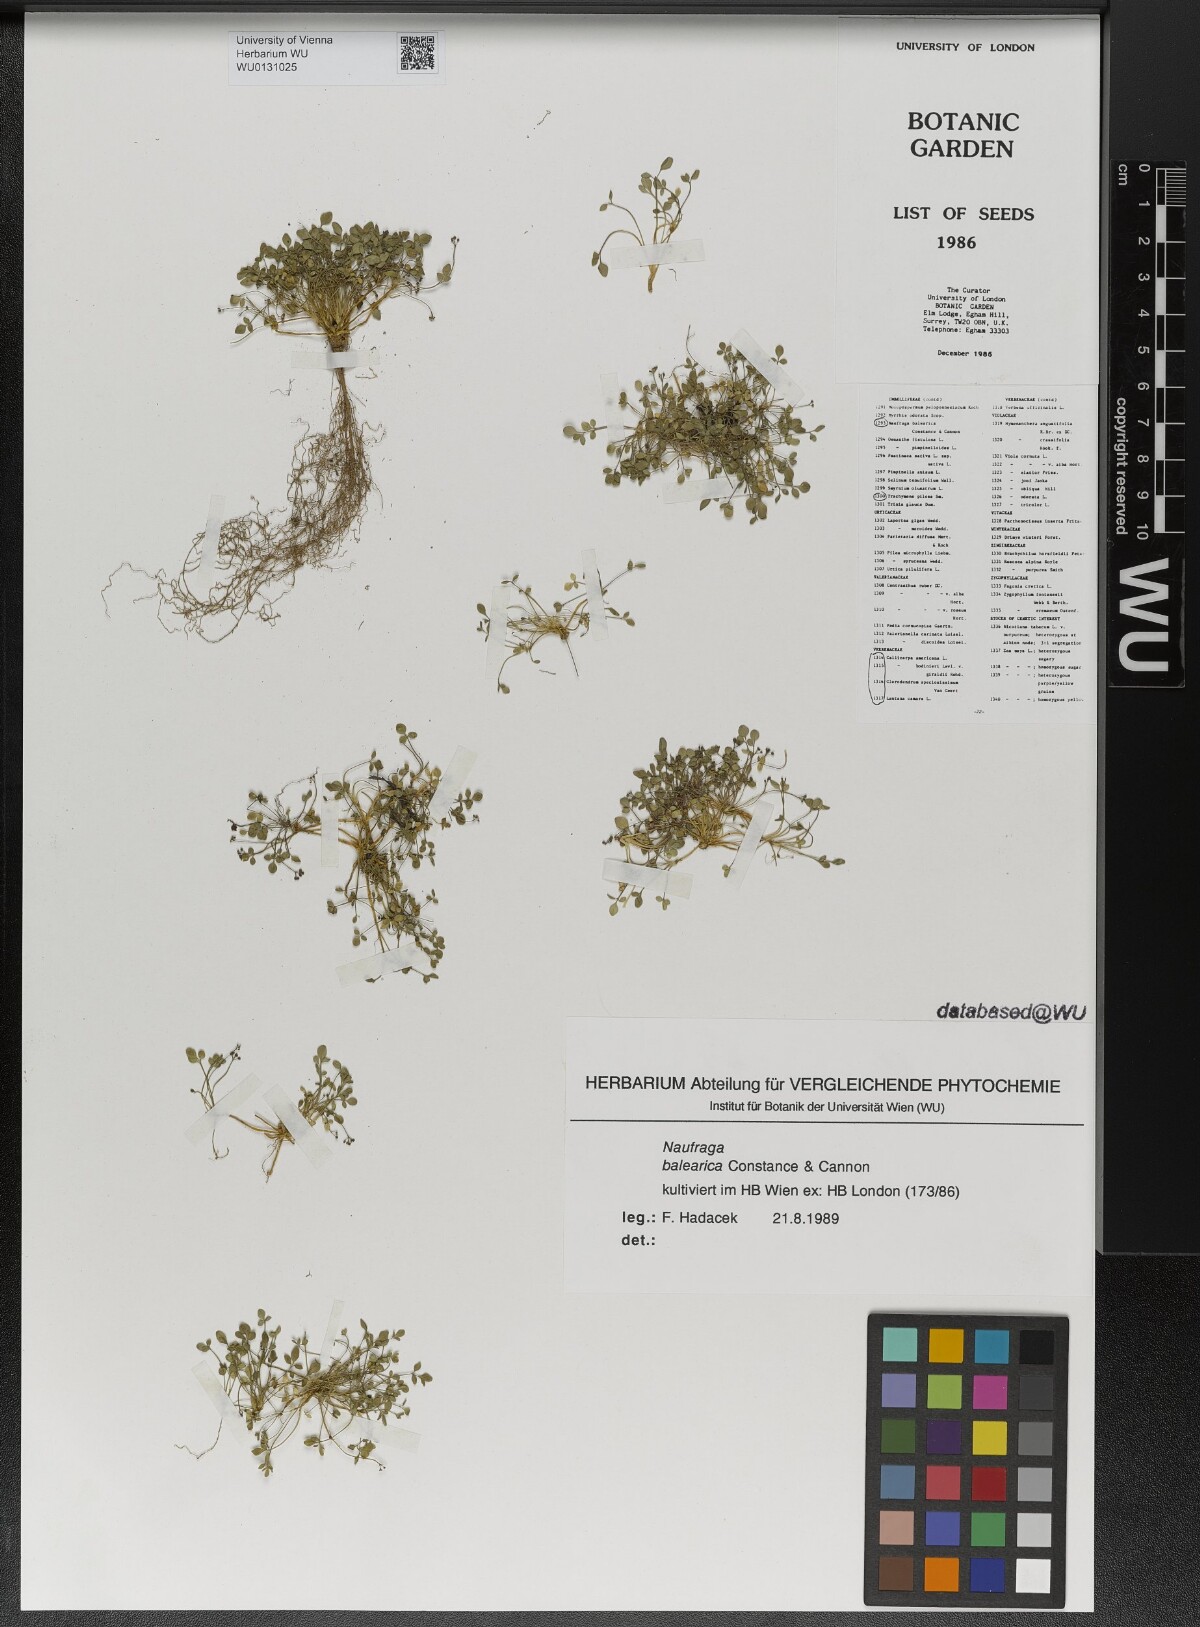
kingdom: Plantae
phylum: Tracheophyta
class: Magnoliopsida
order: Apiales
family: Apiaceae
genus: Naufraga
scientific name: Naufraga balearica
